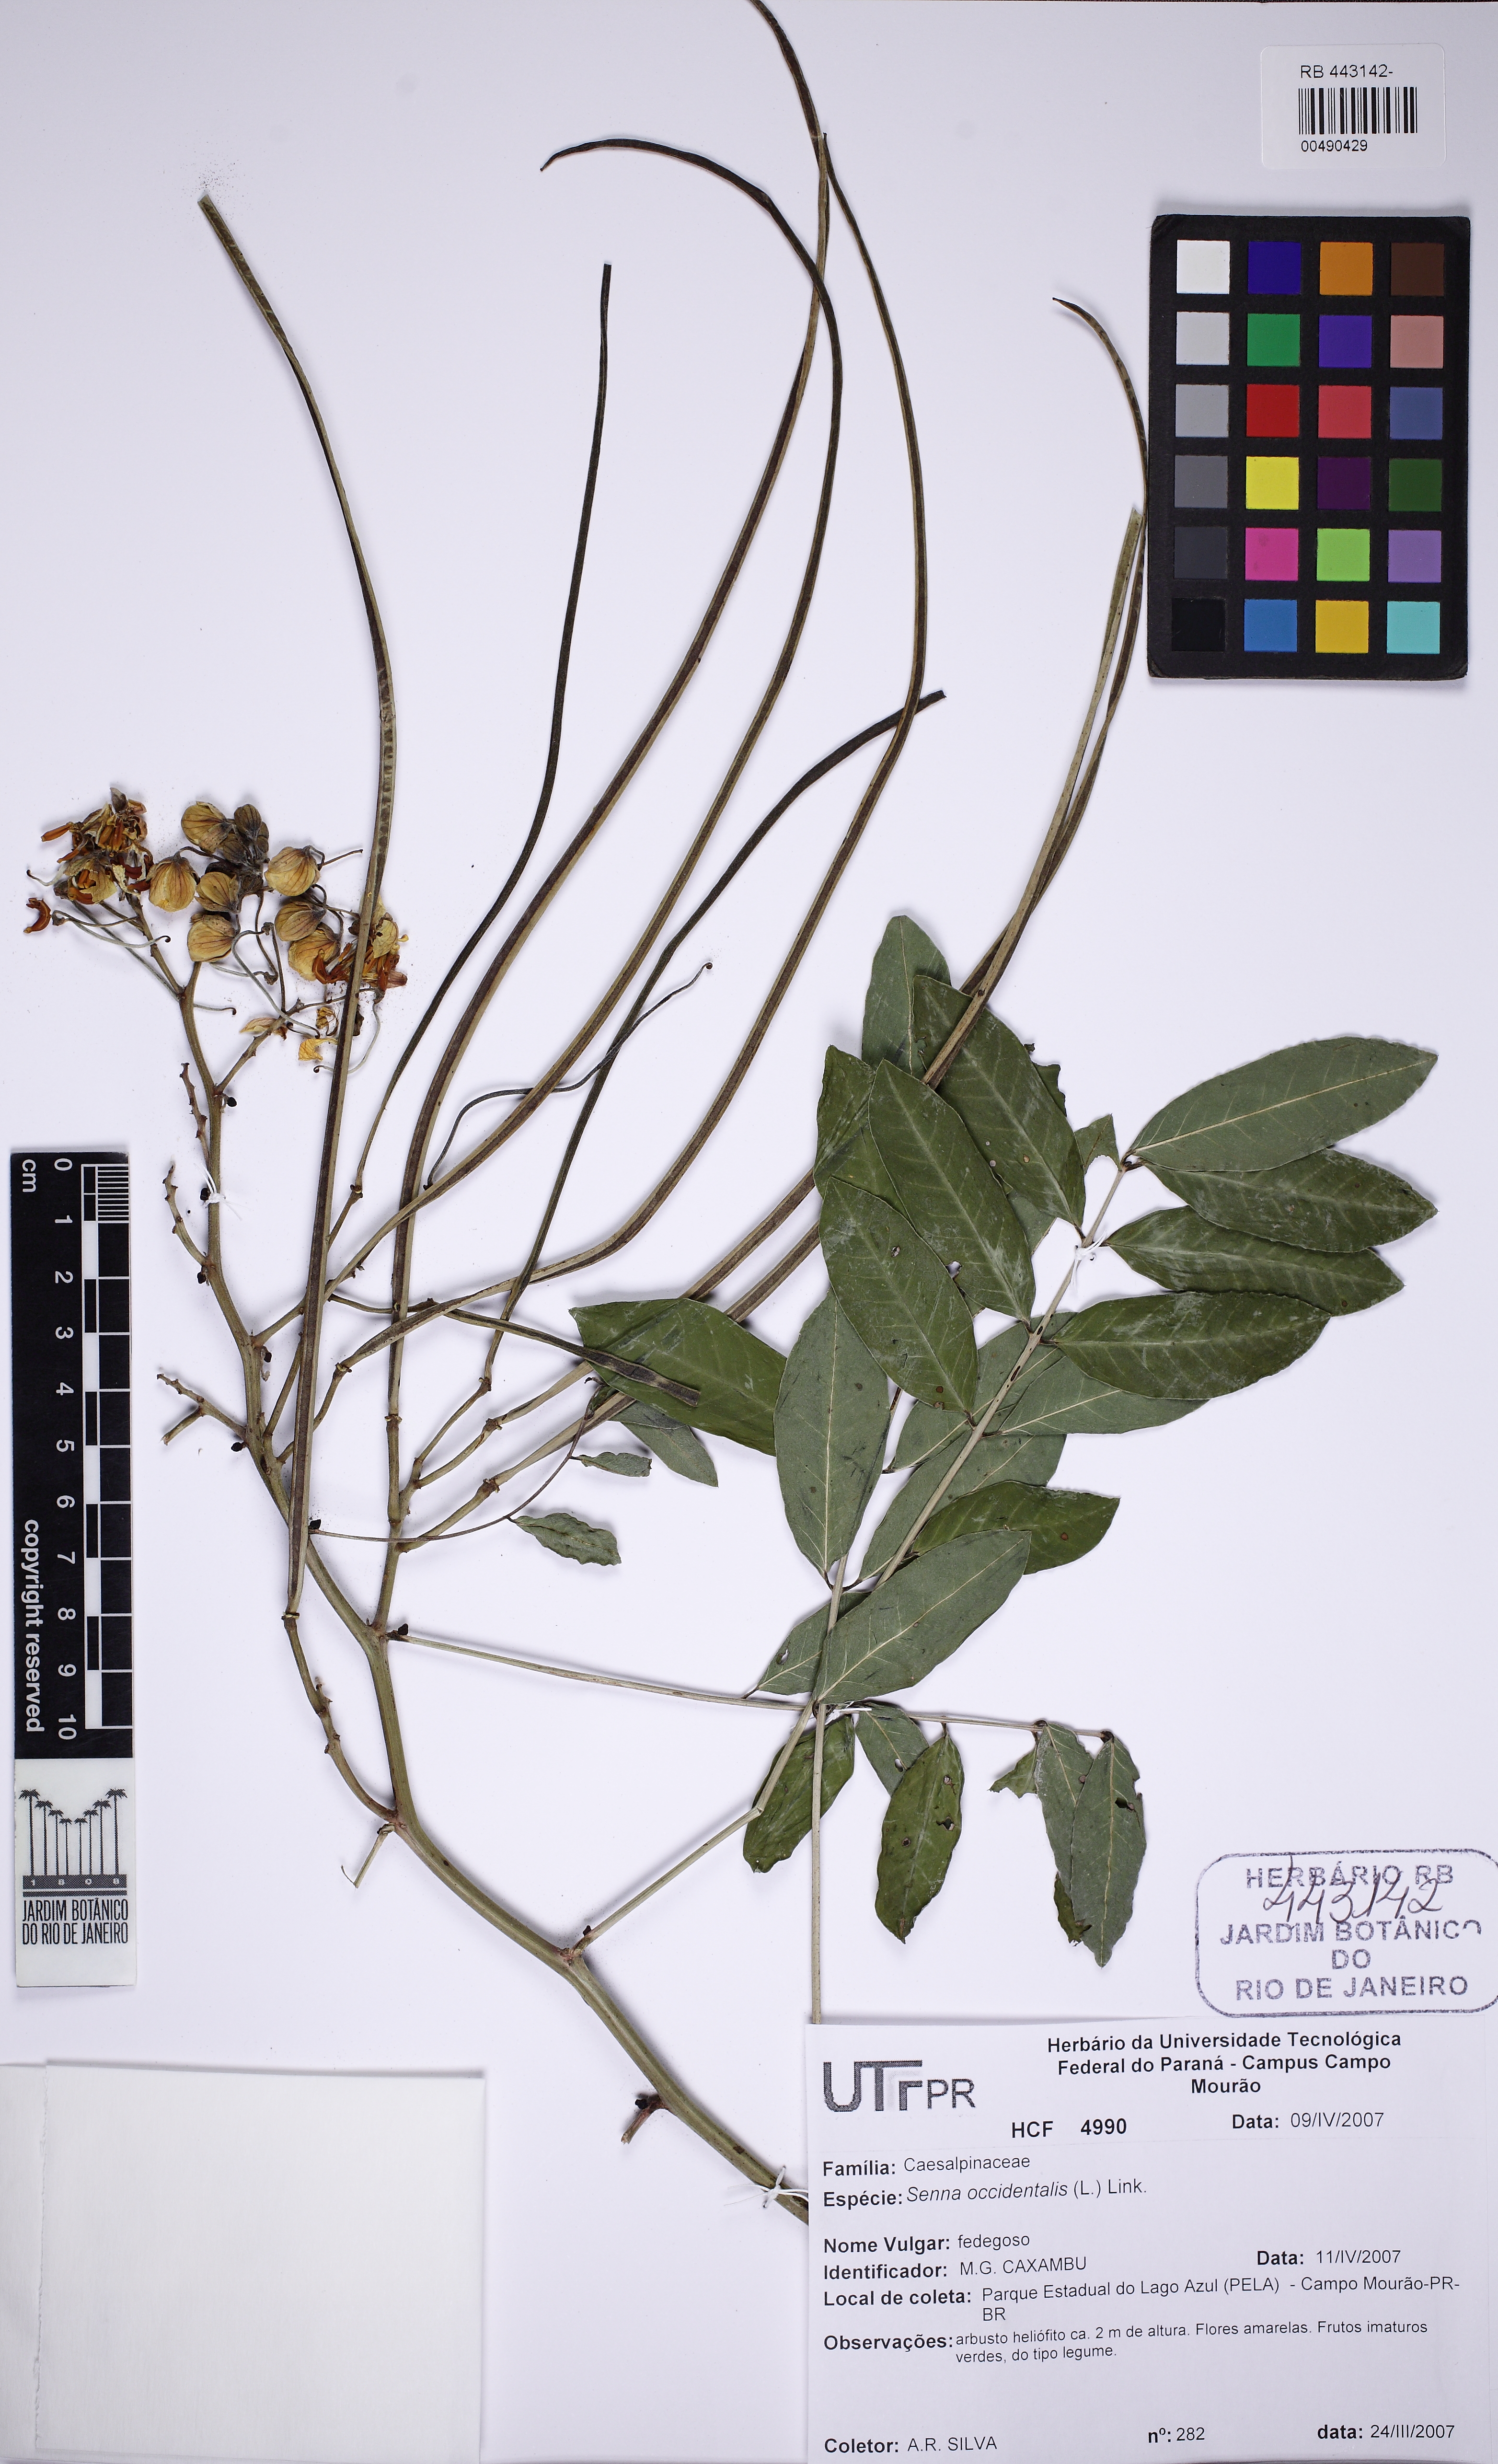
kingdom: Plantae
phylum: Tracheophyta
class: Magnoliopsida
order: Fabales
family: Fabaceae
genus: Senna
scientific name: Senna occidentalis
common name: Septicweed
